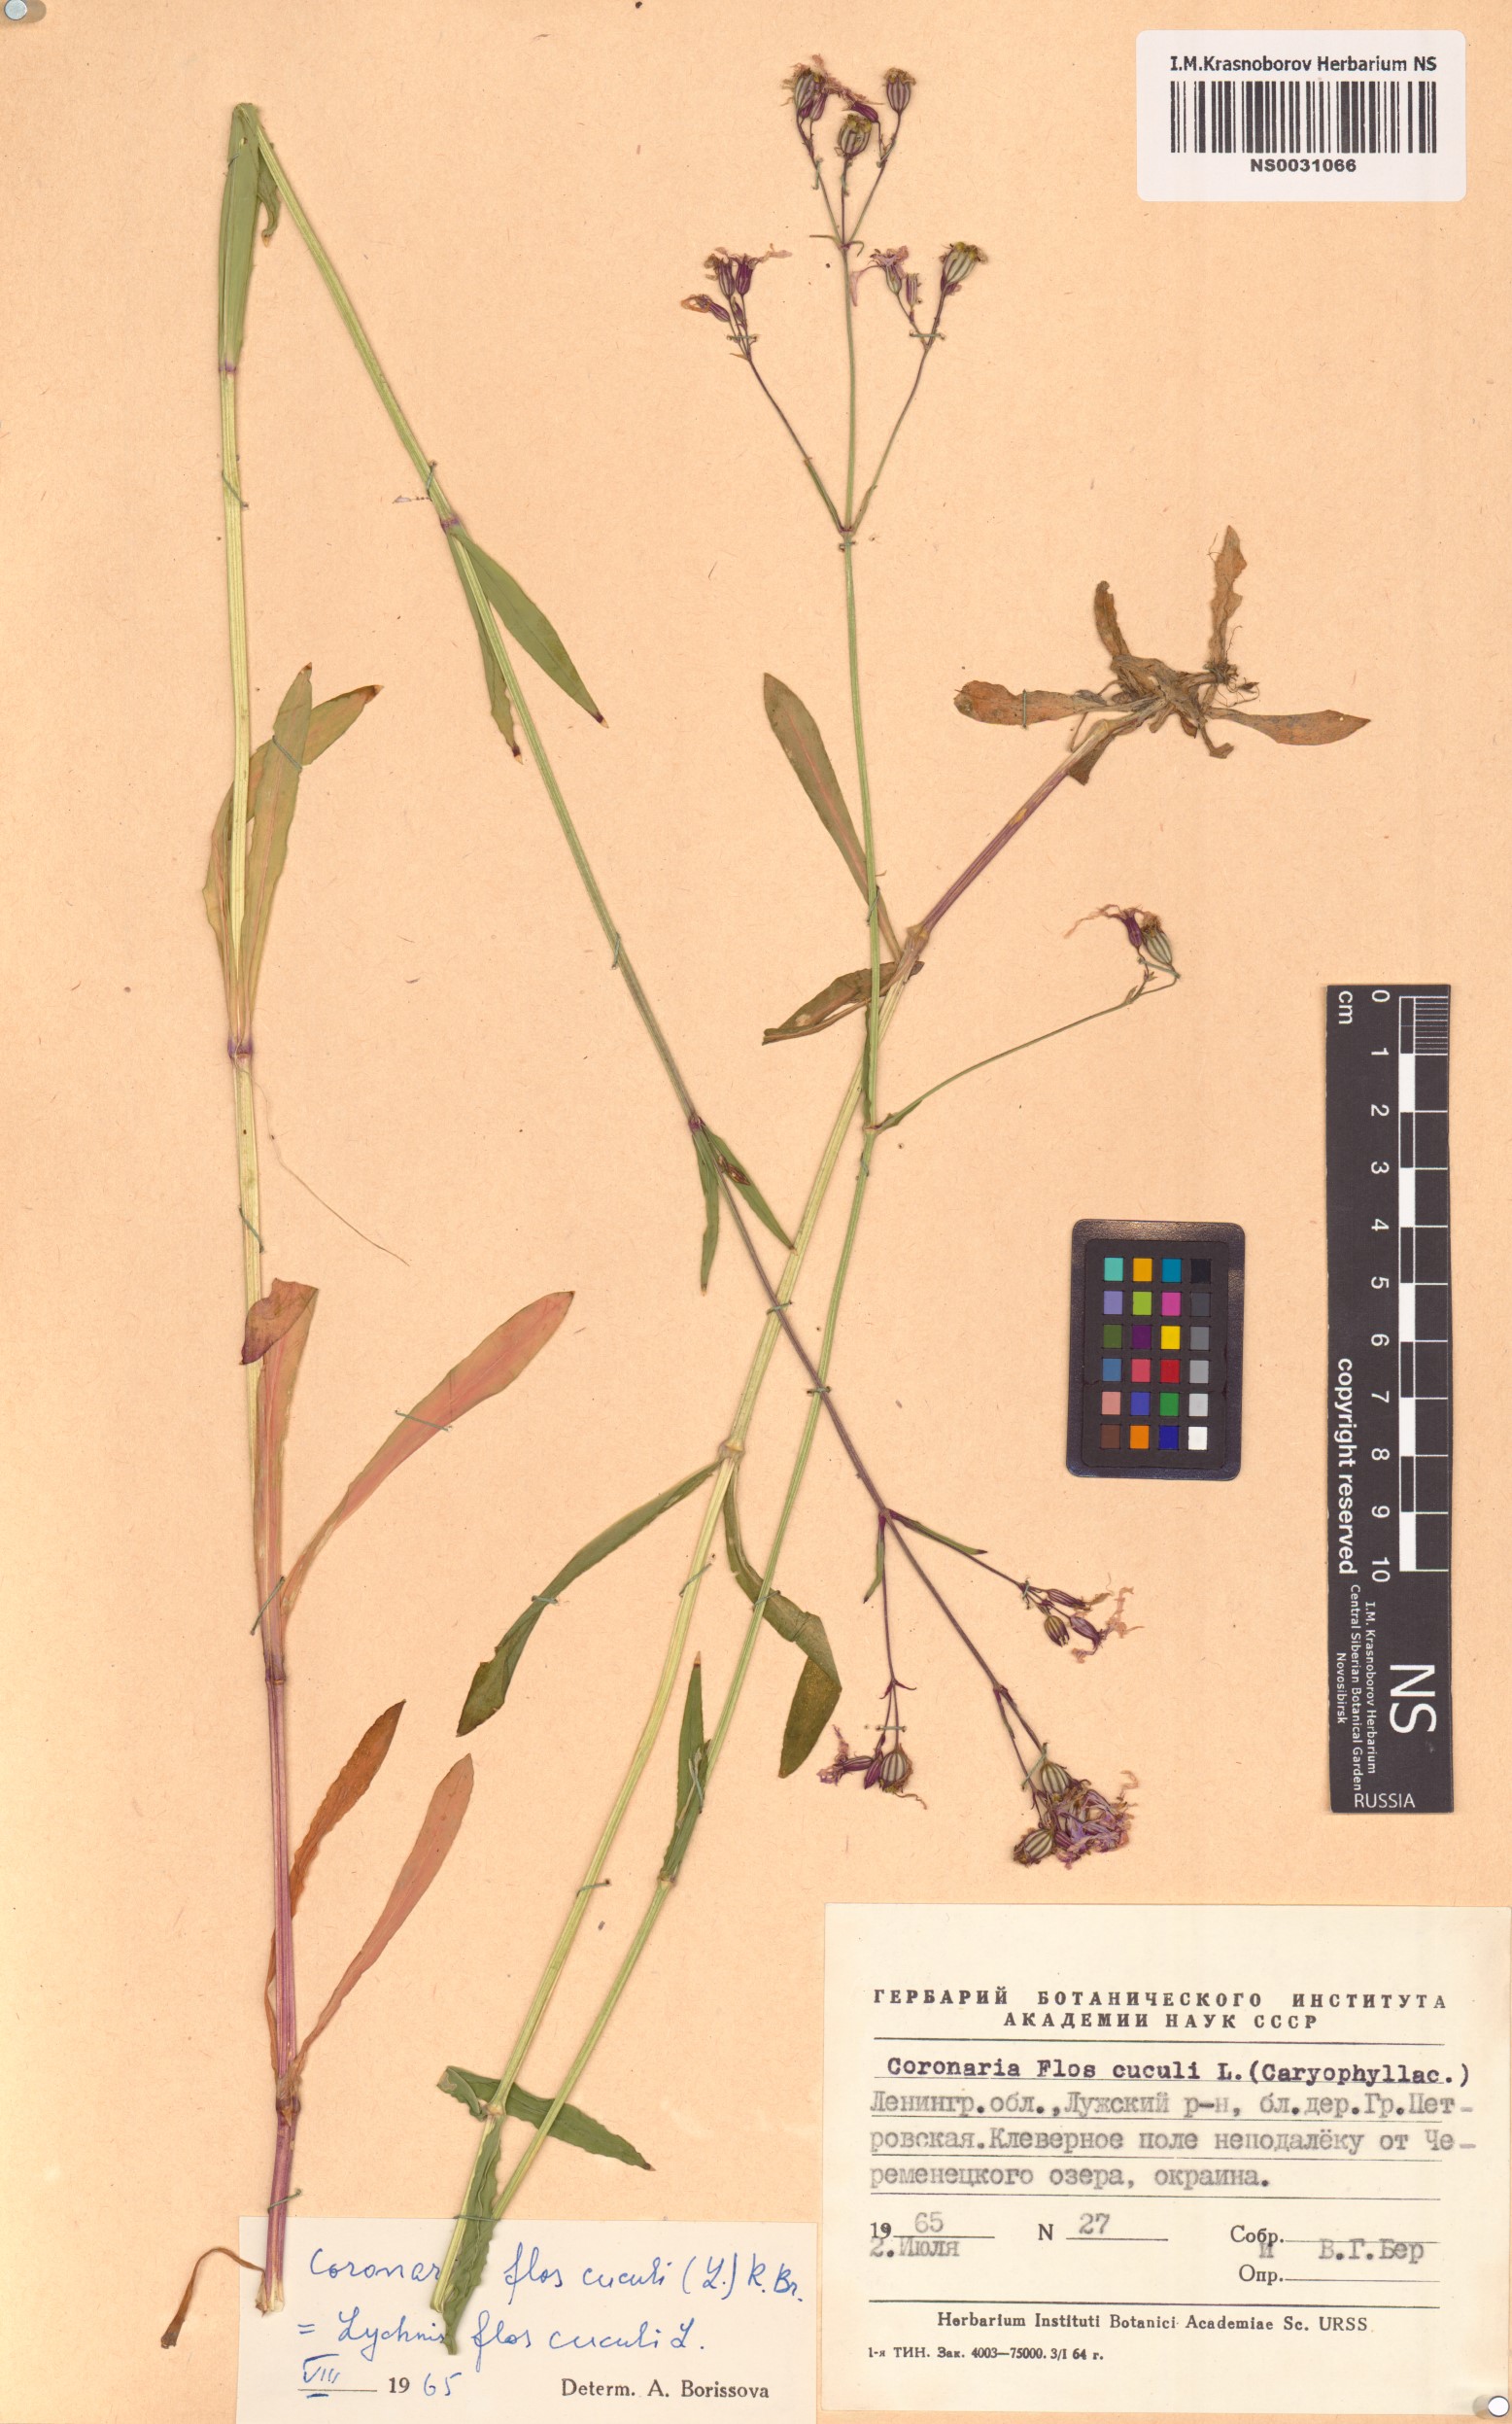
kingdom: Plantae
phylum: Tracheophyta
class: Magnoliopsida
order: Caryophyllales
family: Caryophyllaceae
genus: Silene
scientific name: Silene flos-cuculi
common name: Ragged-robin
